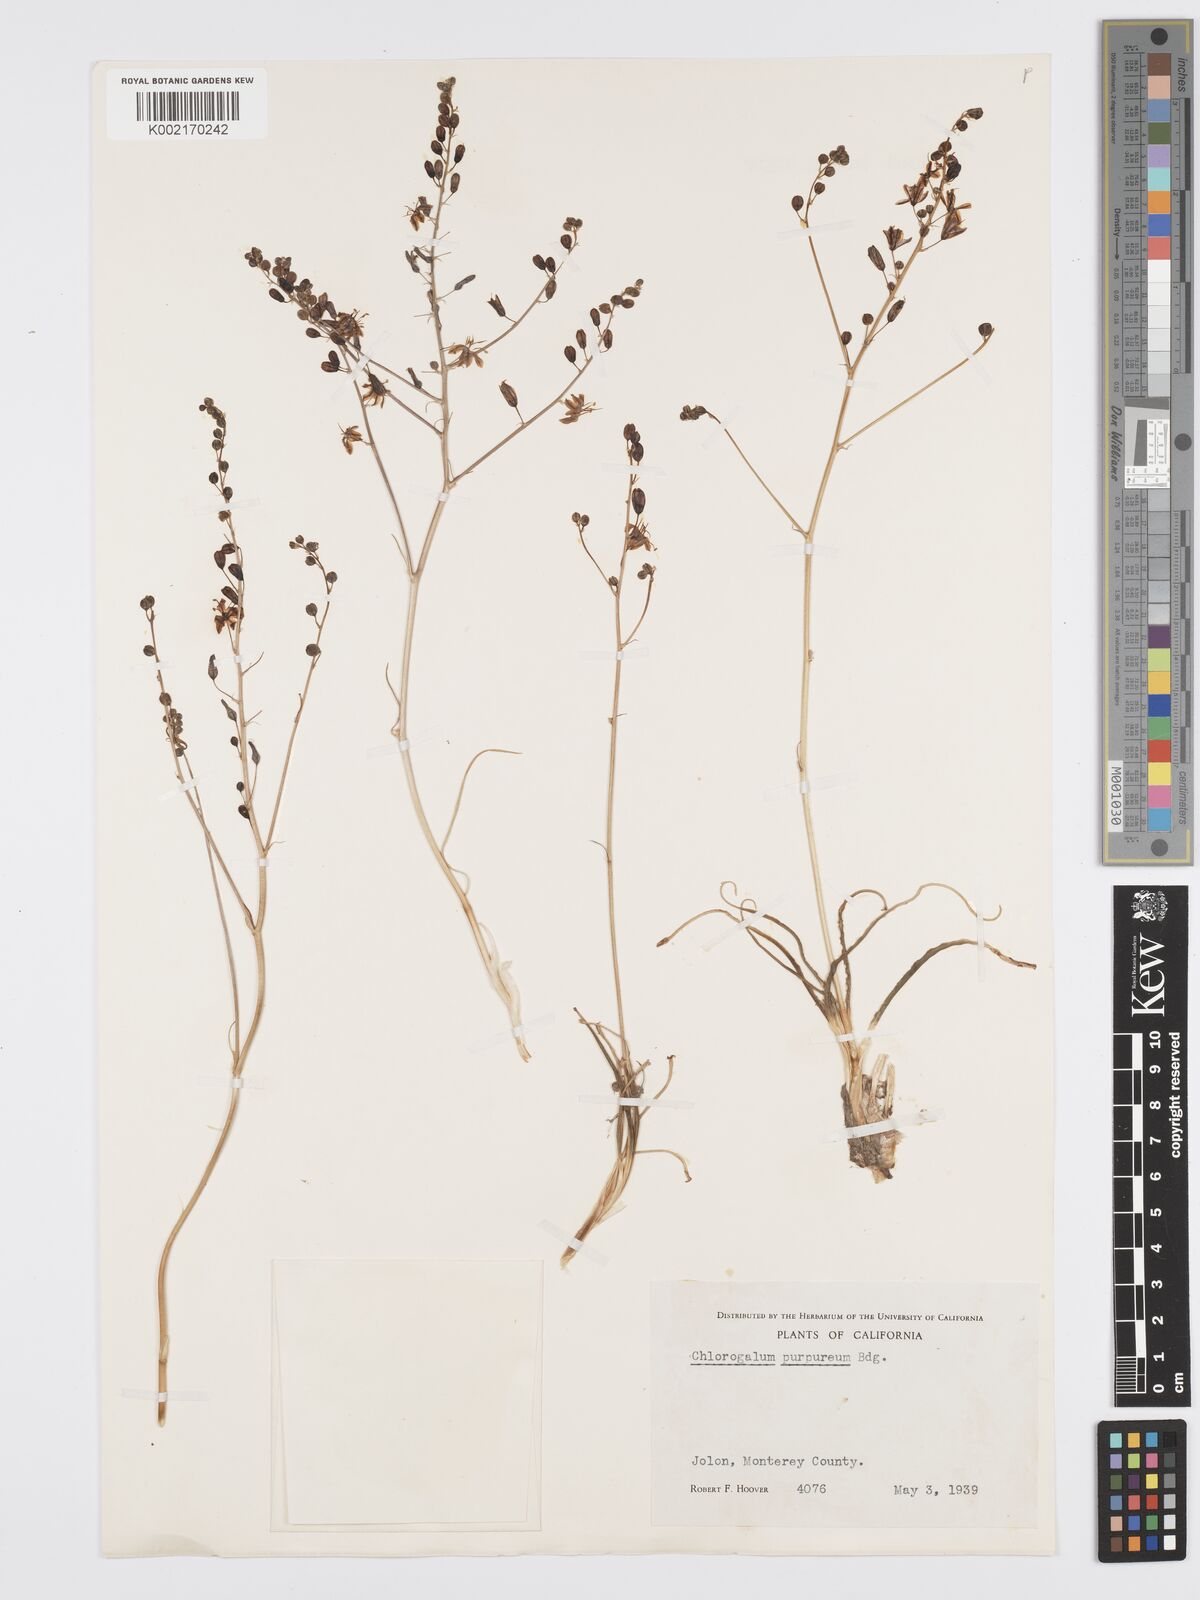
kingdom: Plantae
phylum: Tracheophyta
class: Liliopsida
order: Asparagales
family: Asparagaceae
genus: Hooveria
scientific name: Hooveria purpurea
